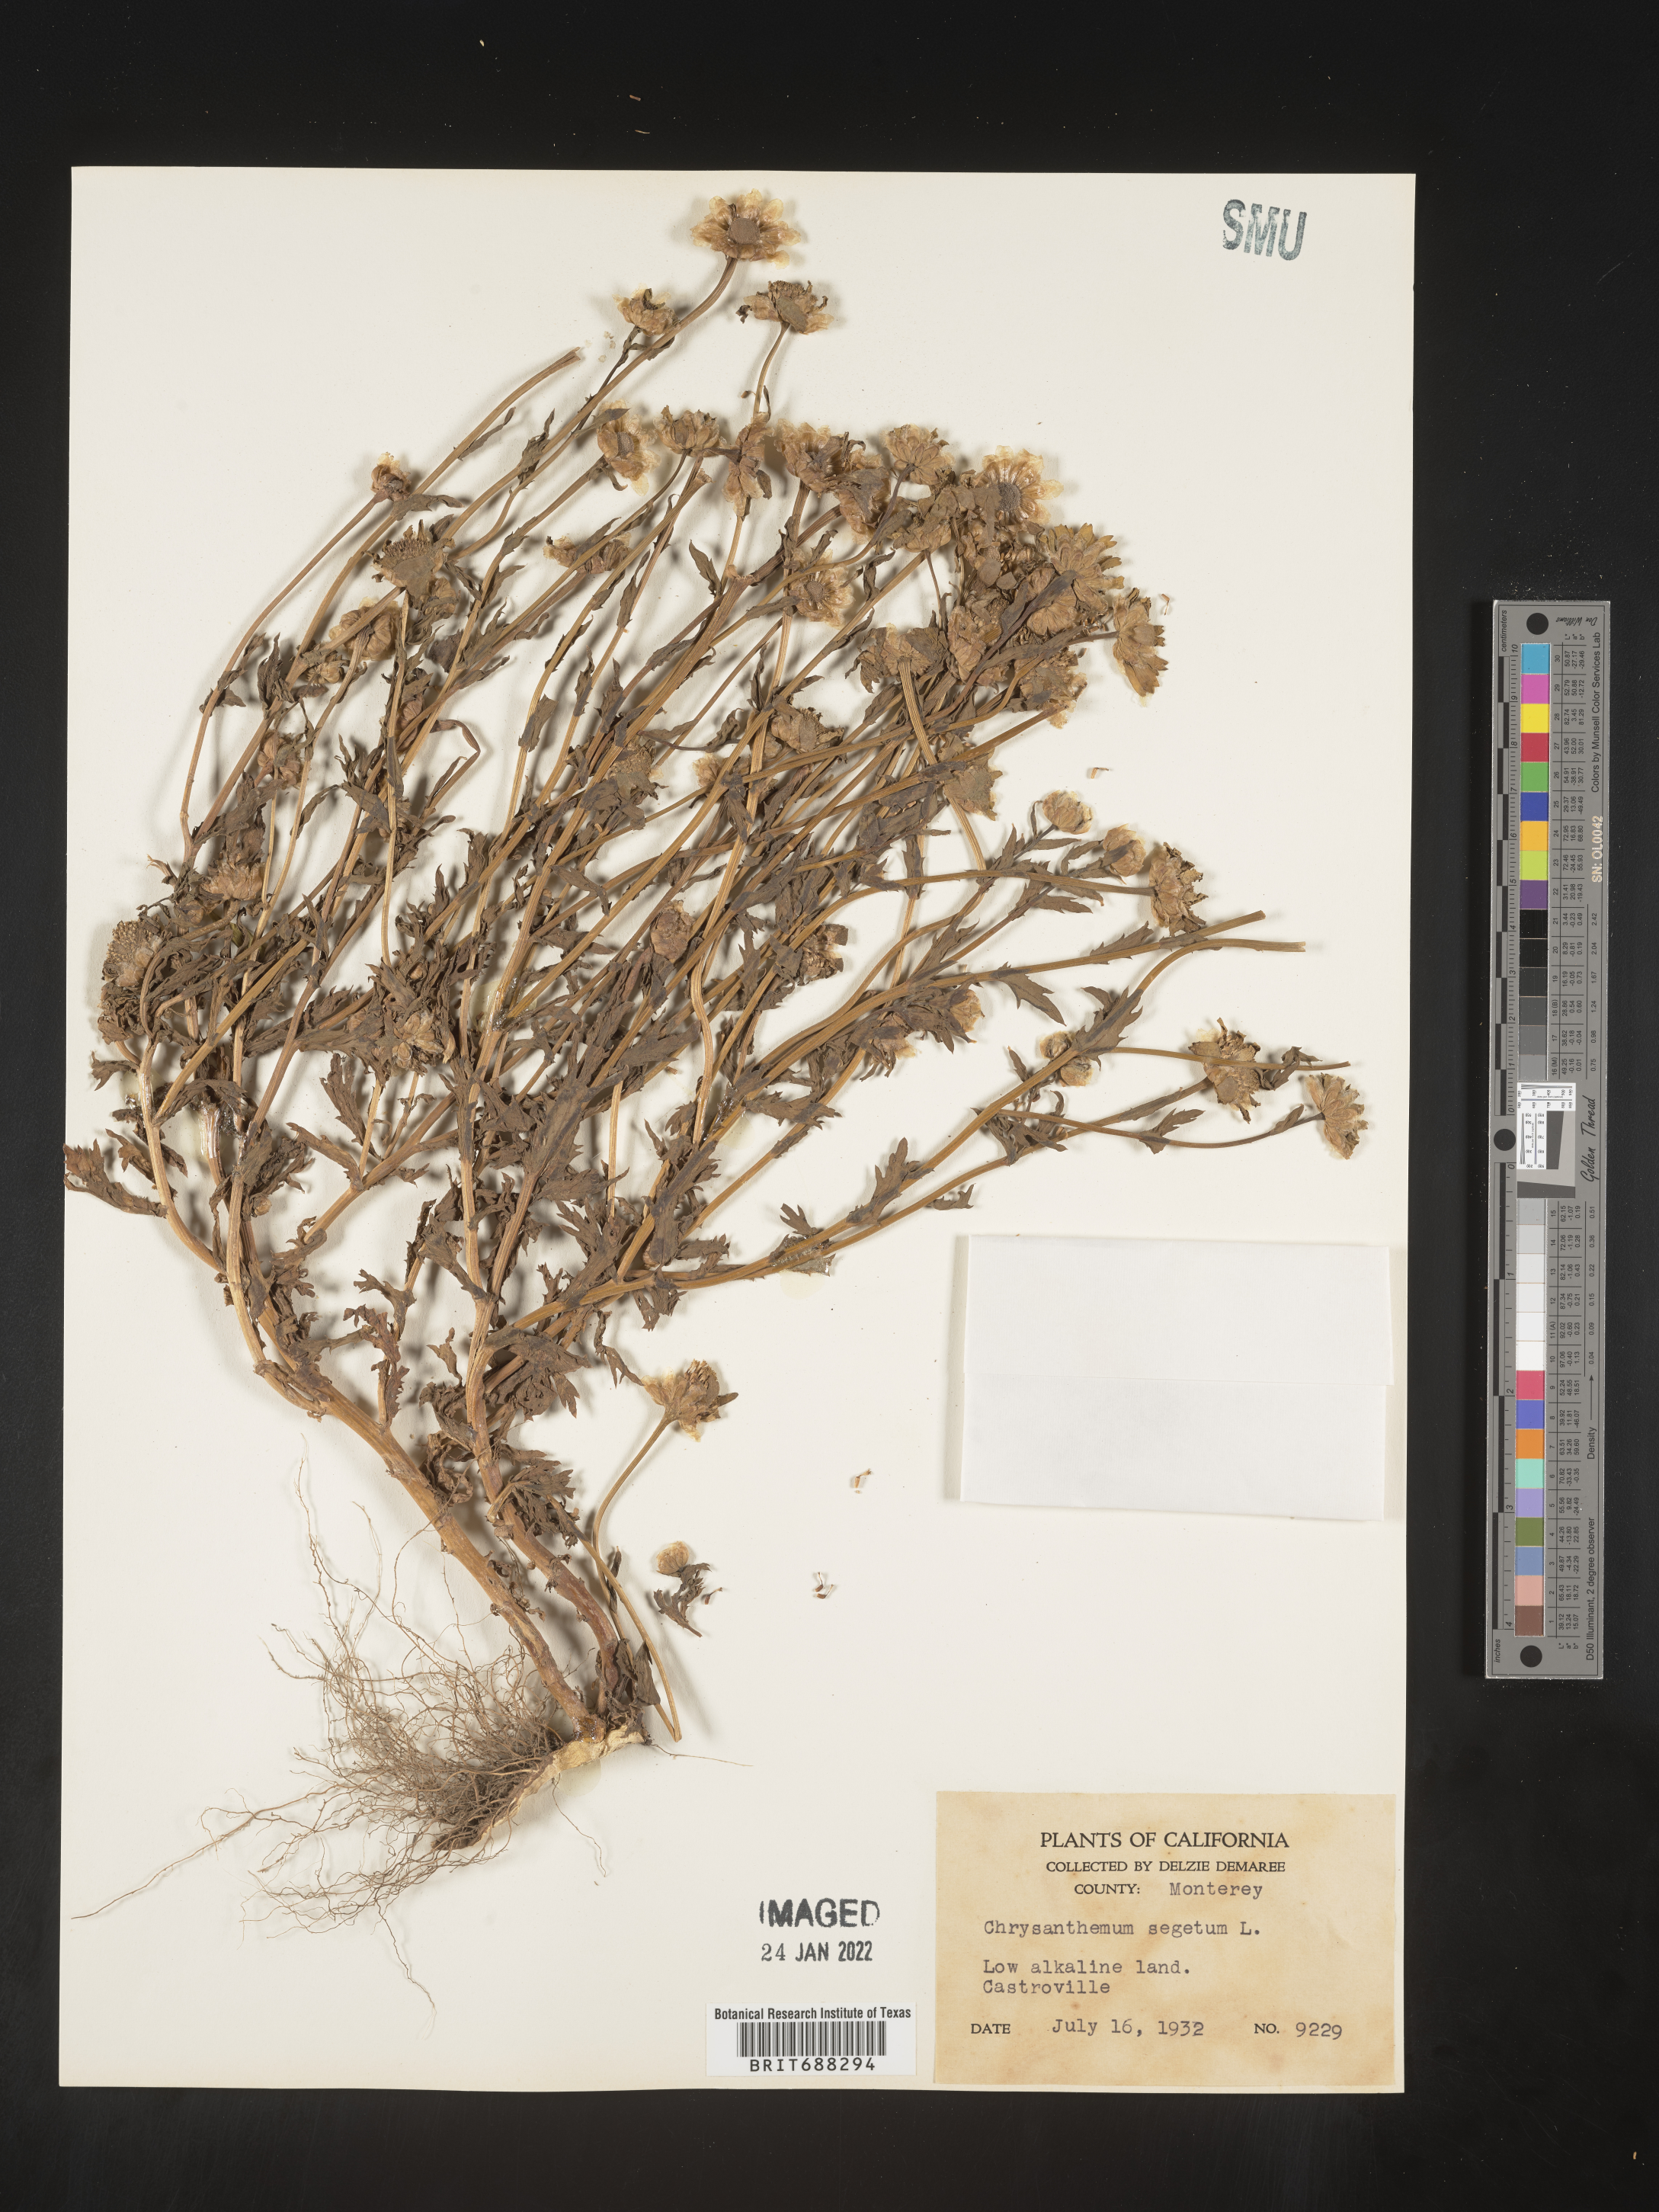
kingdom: Plantae
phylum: Tracheophyta
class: Magnoliopsida
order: Asterales
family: Asteraceae
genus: Chrysanthemum
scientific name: Chrysanthemum
